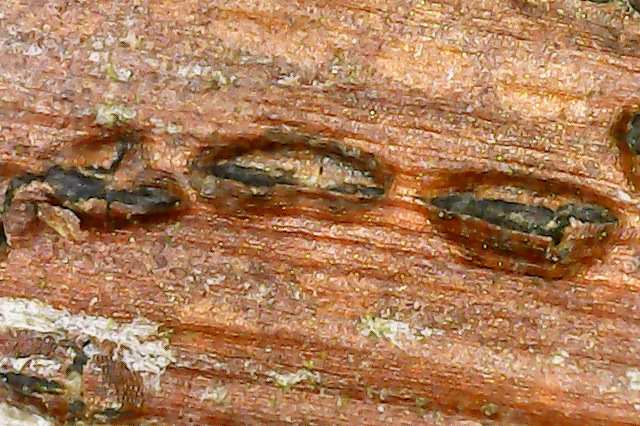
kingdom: Fungi
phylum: Ascomycota
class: Dothideomycetes
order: Botryosphaeriales
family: Botryosphaeriaceae
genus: Diplodia
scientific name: Diplodia rubi
